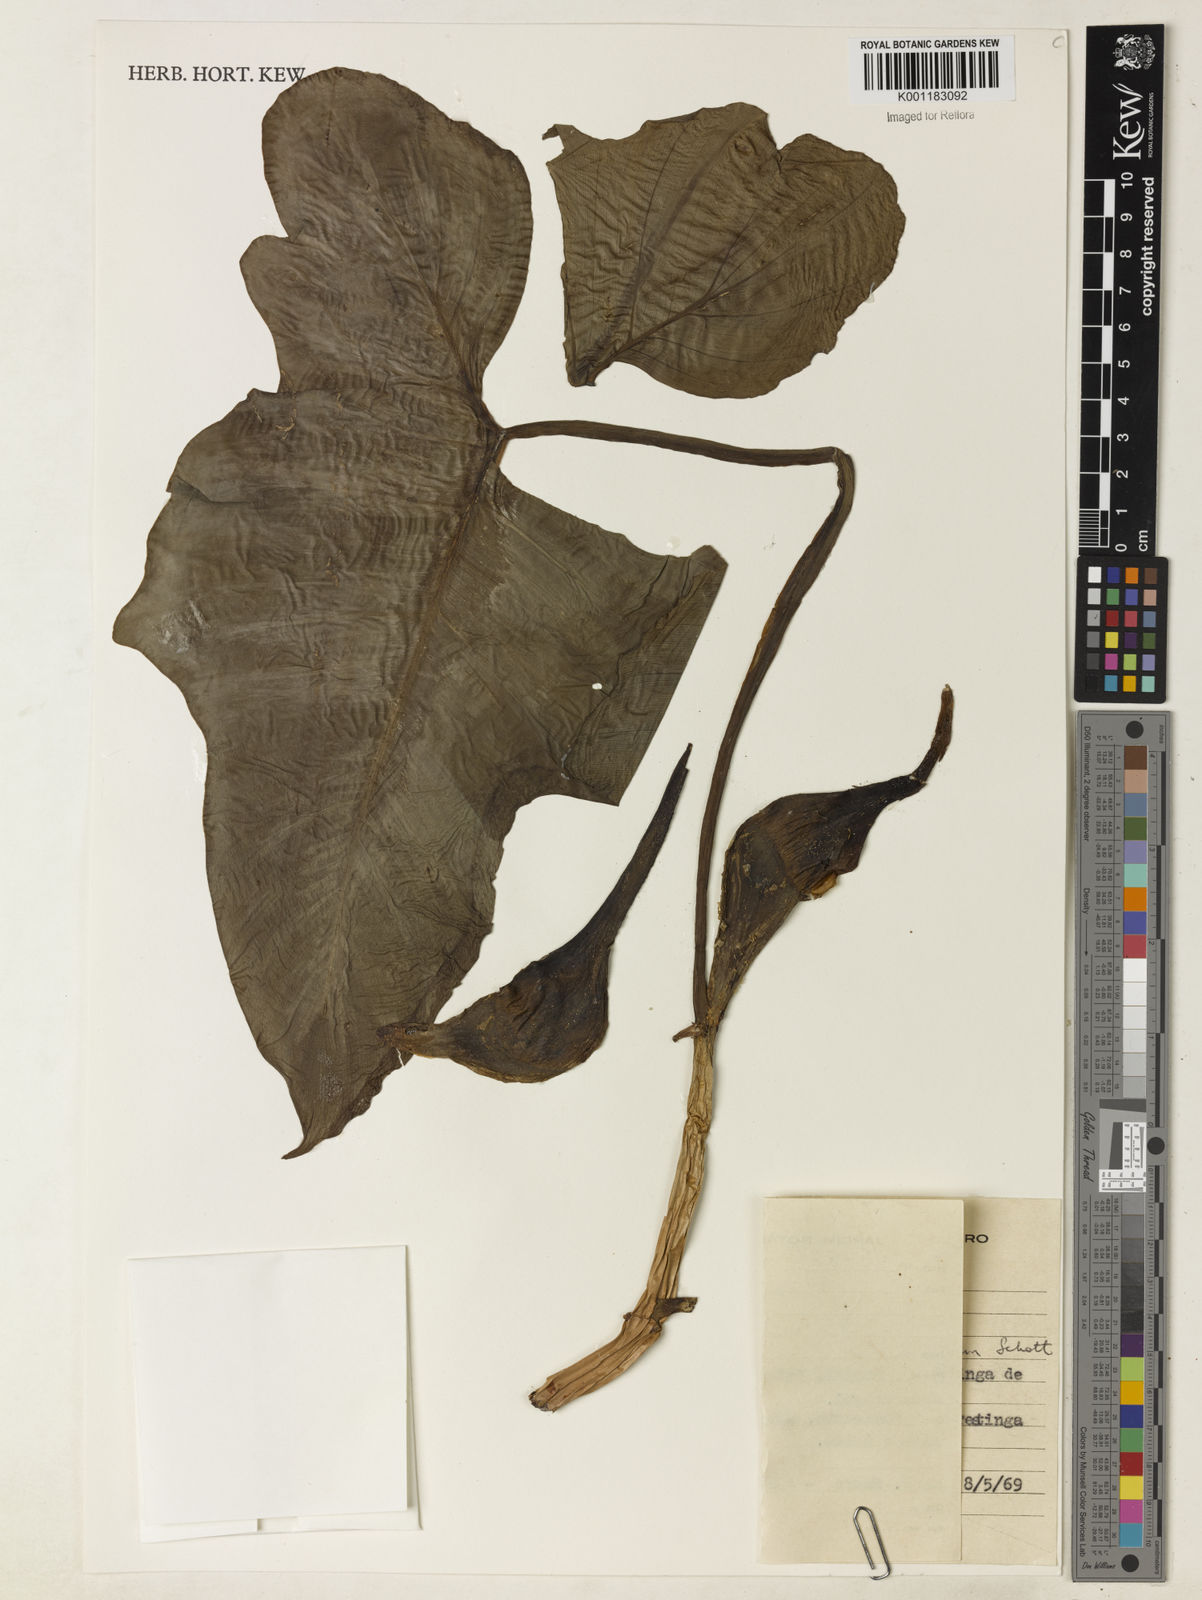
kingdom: Plantae
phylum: Tracheophyta
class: Liliopsida
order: Alismatales
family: Araceae
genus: Philodendron
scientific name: Philodendron bipennifolium
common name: Fiddle-leaf philodendron
